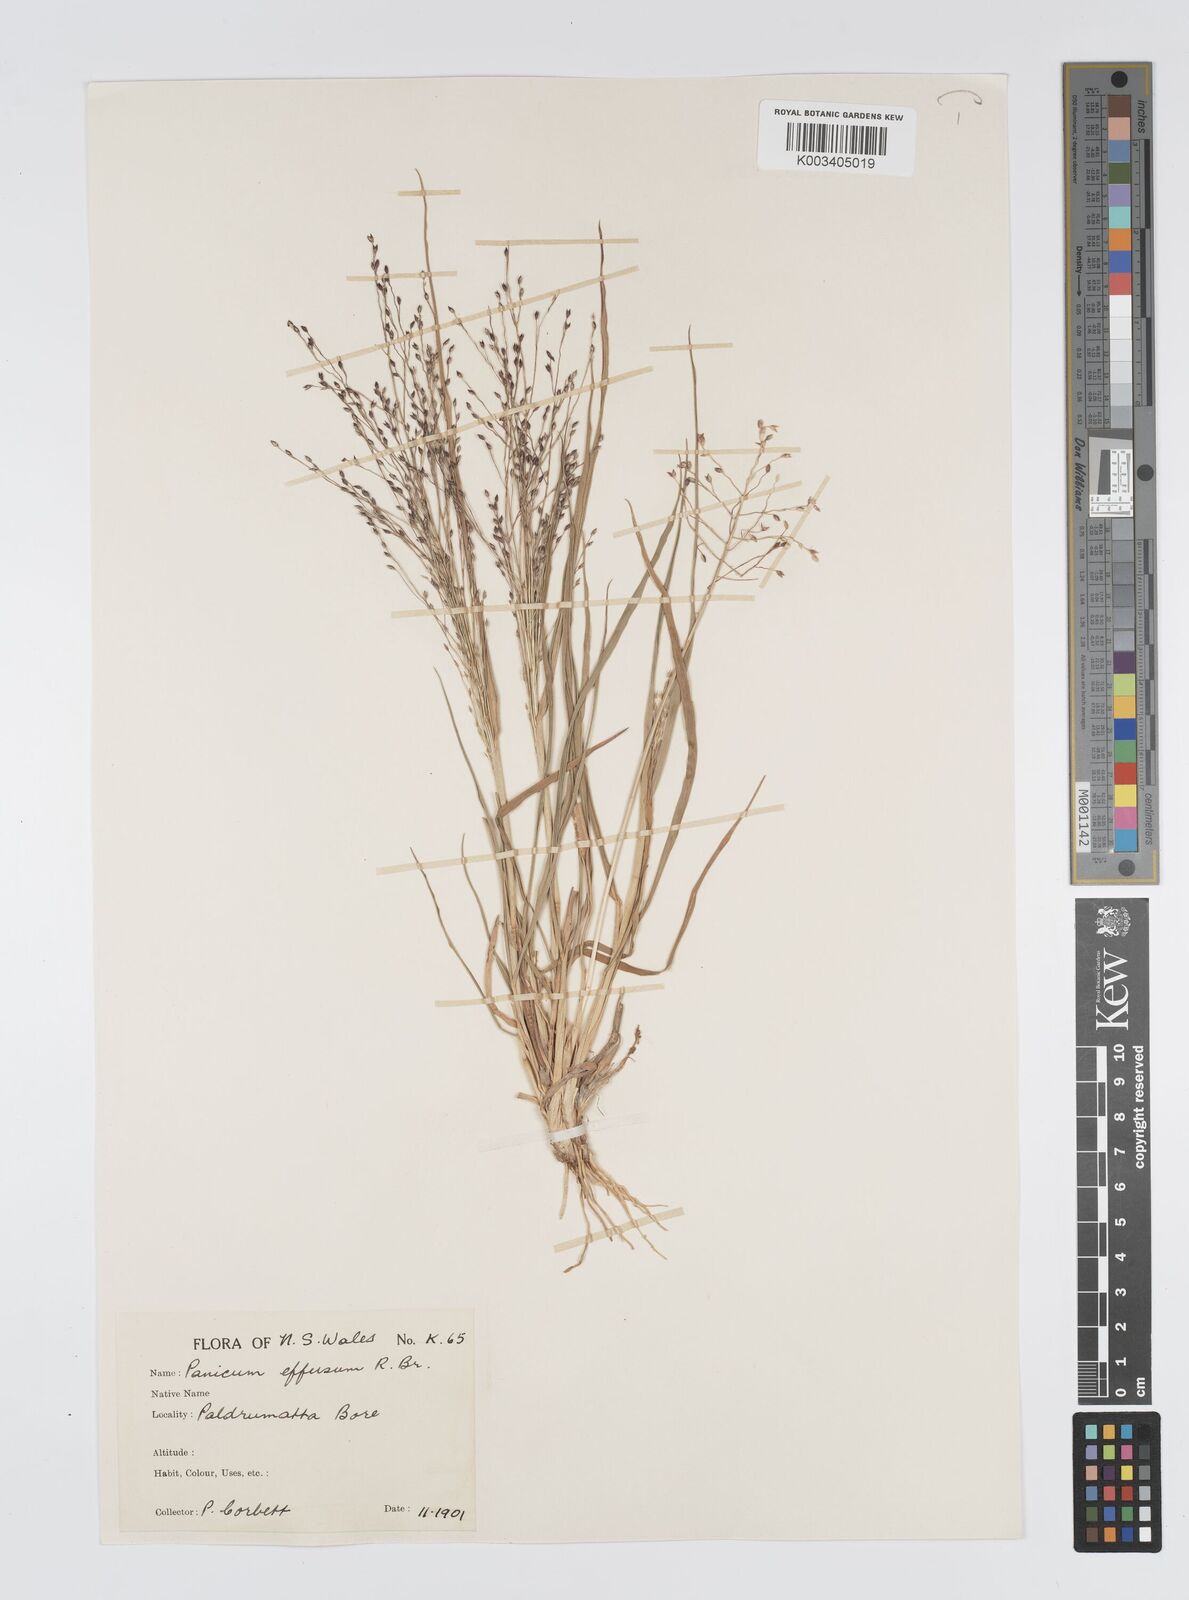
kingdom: Plantae
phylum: Tracheophyta
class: Liliopsida
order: Poales
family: Poaceae
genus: Panicum
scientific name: Panicum effusum
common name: Hairy panic grass
